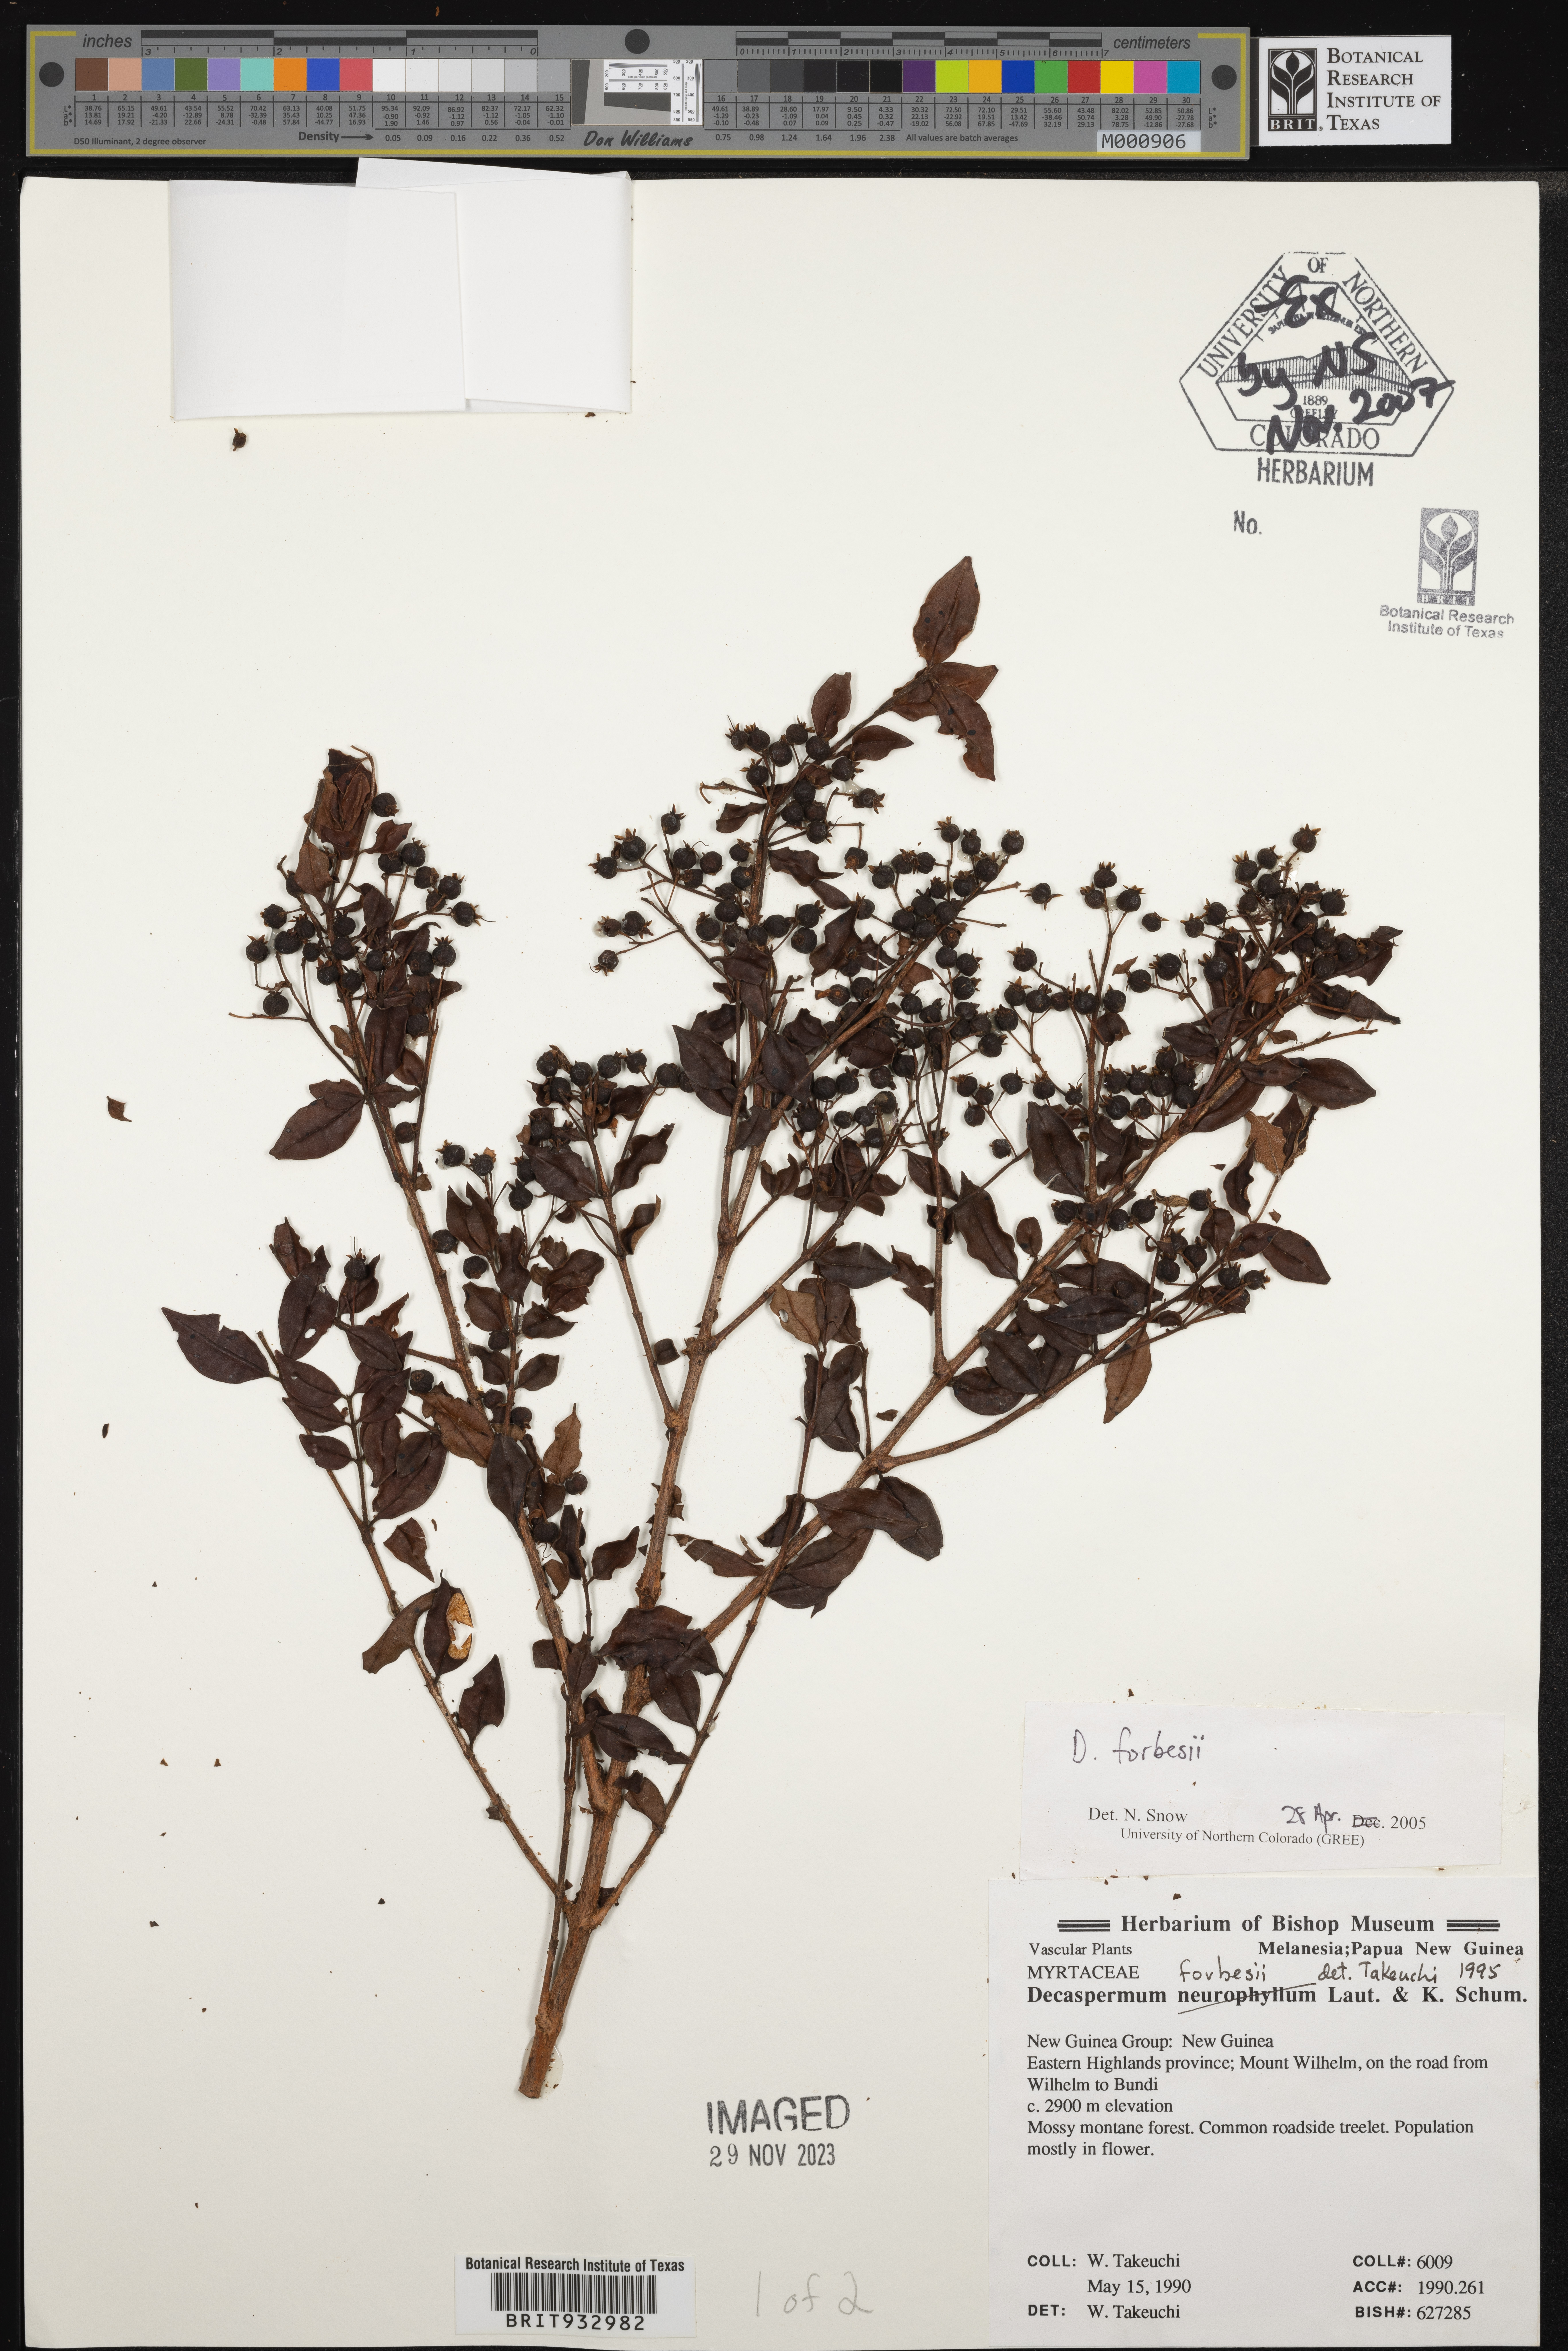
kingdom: Plantae
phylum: Tracheophyta
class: Magnoliopsida
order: Myrtales
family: Myrtaceae
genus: Decaspermum
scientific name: Decaspermum
